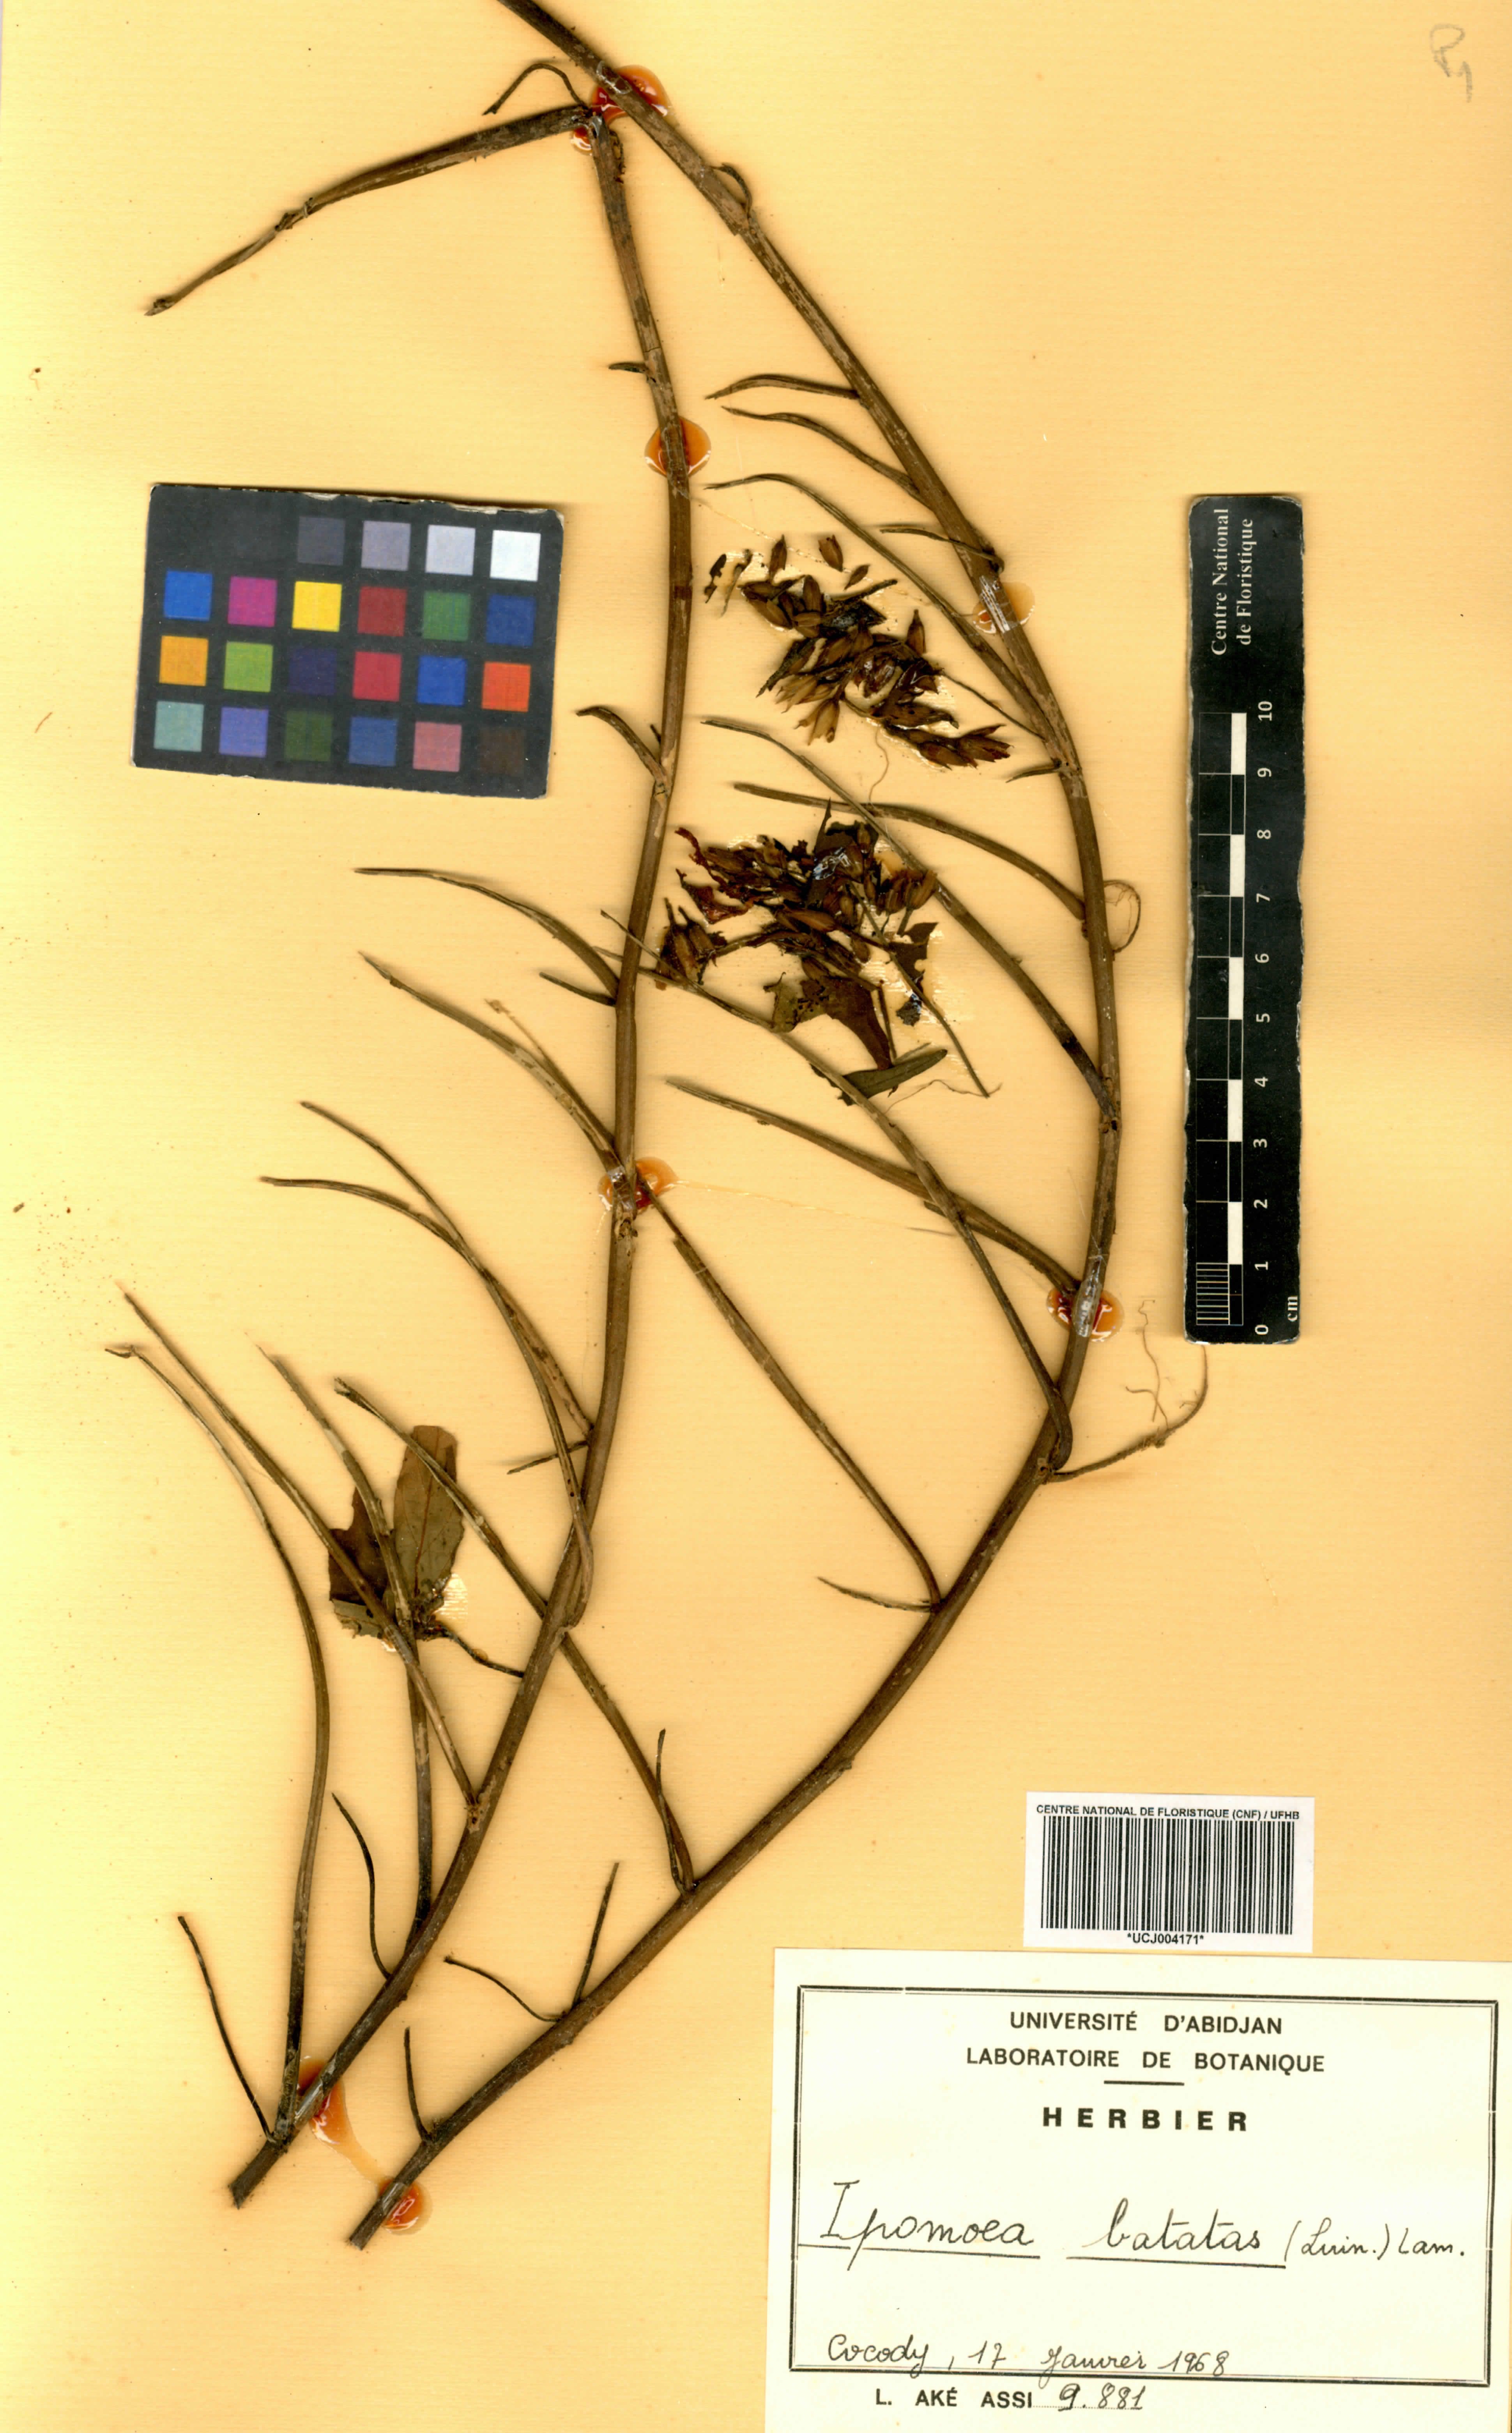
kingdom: Plantae
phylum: Tracheophyta
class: Magnoliopsida
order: Solanales
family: Convolvulaceae
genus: Ipomoea
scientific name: Ipomoea batatas
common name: Sweet-potato
